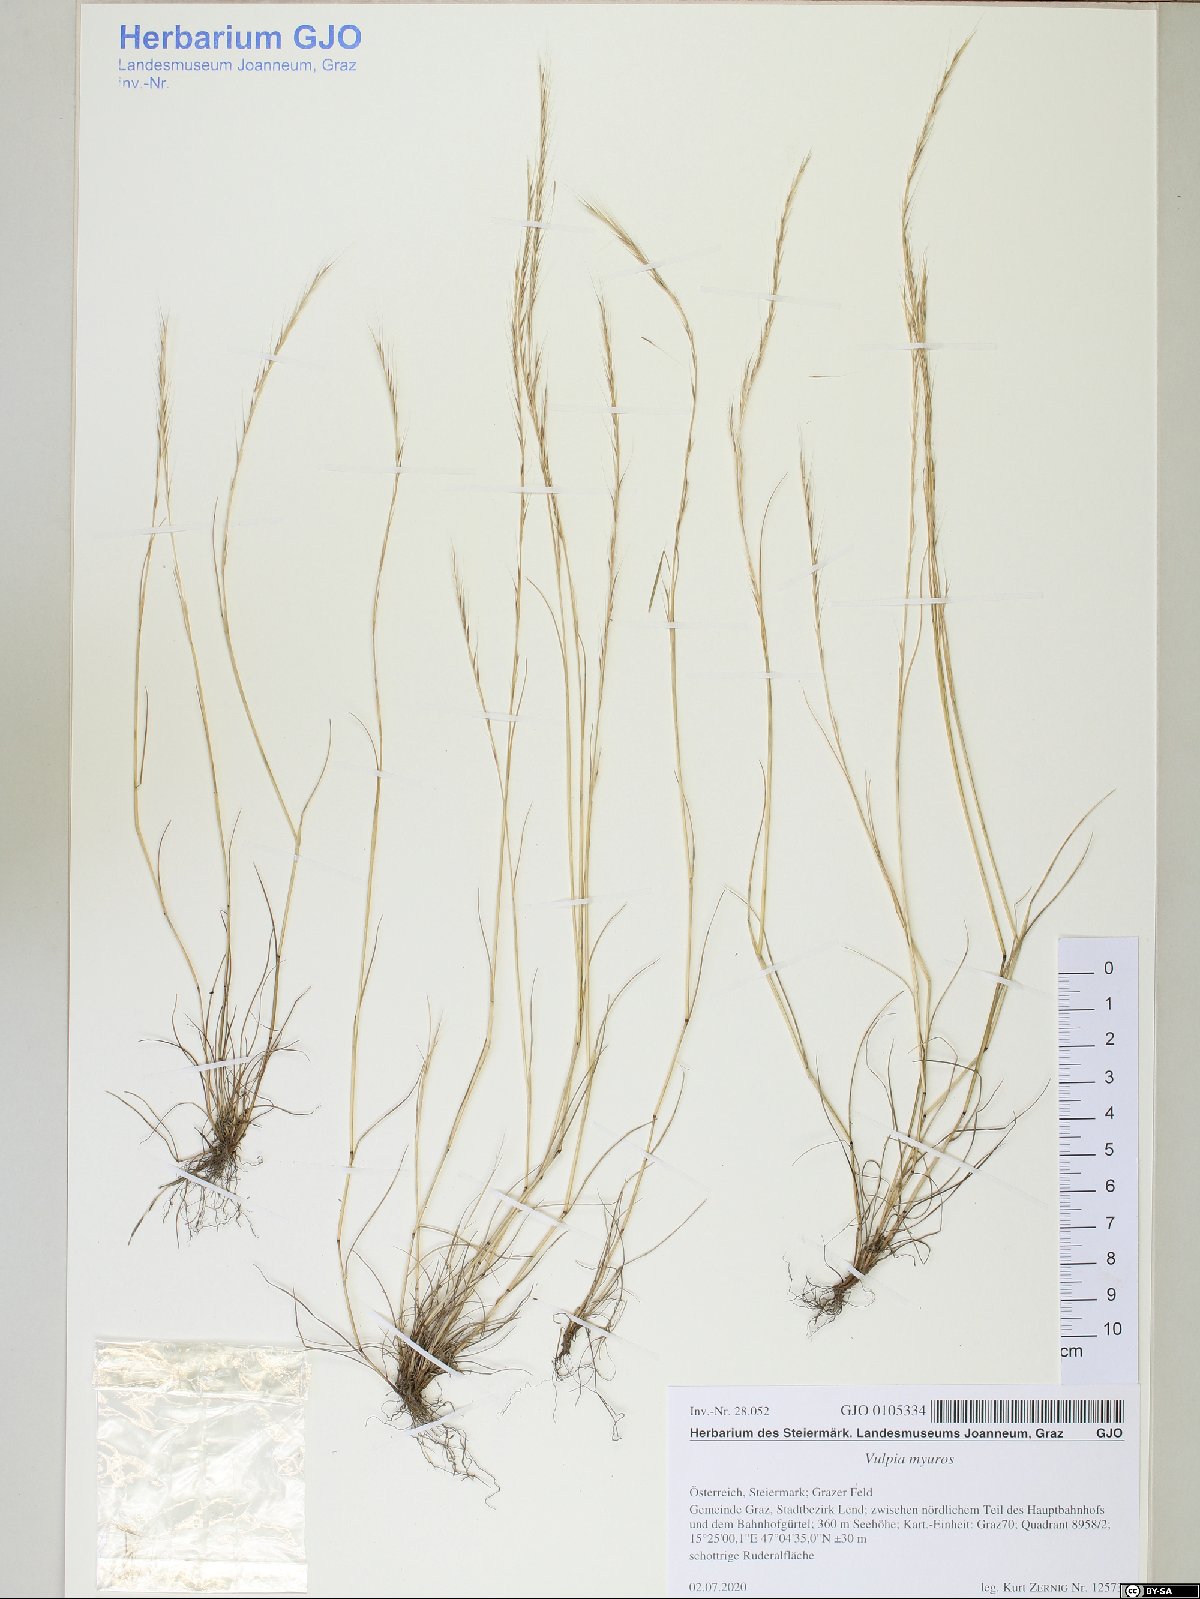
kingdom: Plantae
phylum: Tracheophyta
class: Liliopsida
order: Poales
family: Poaceae
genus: Festuca
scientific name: Festuca myuros
